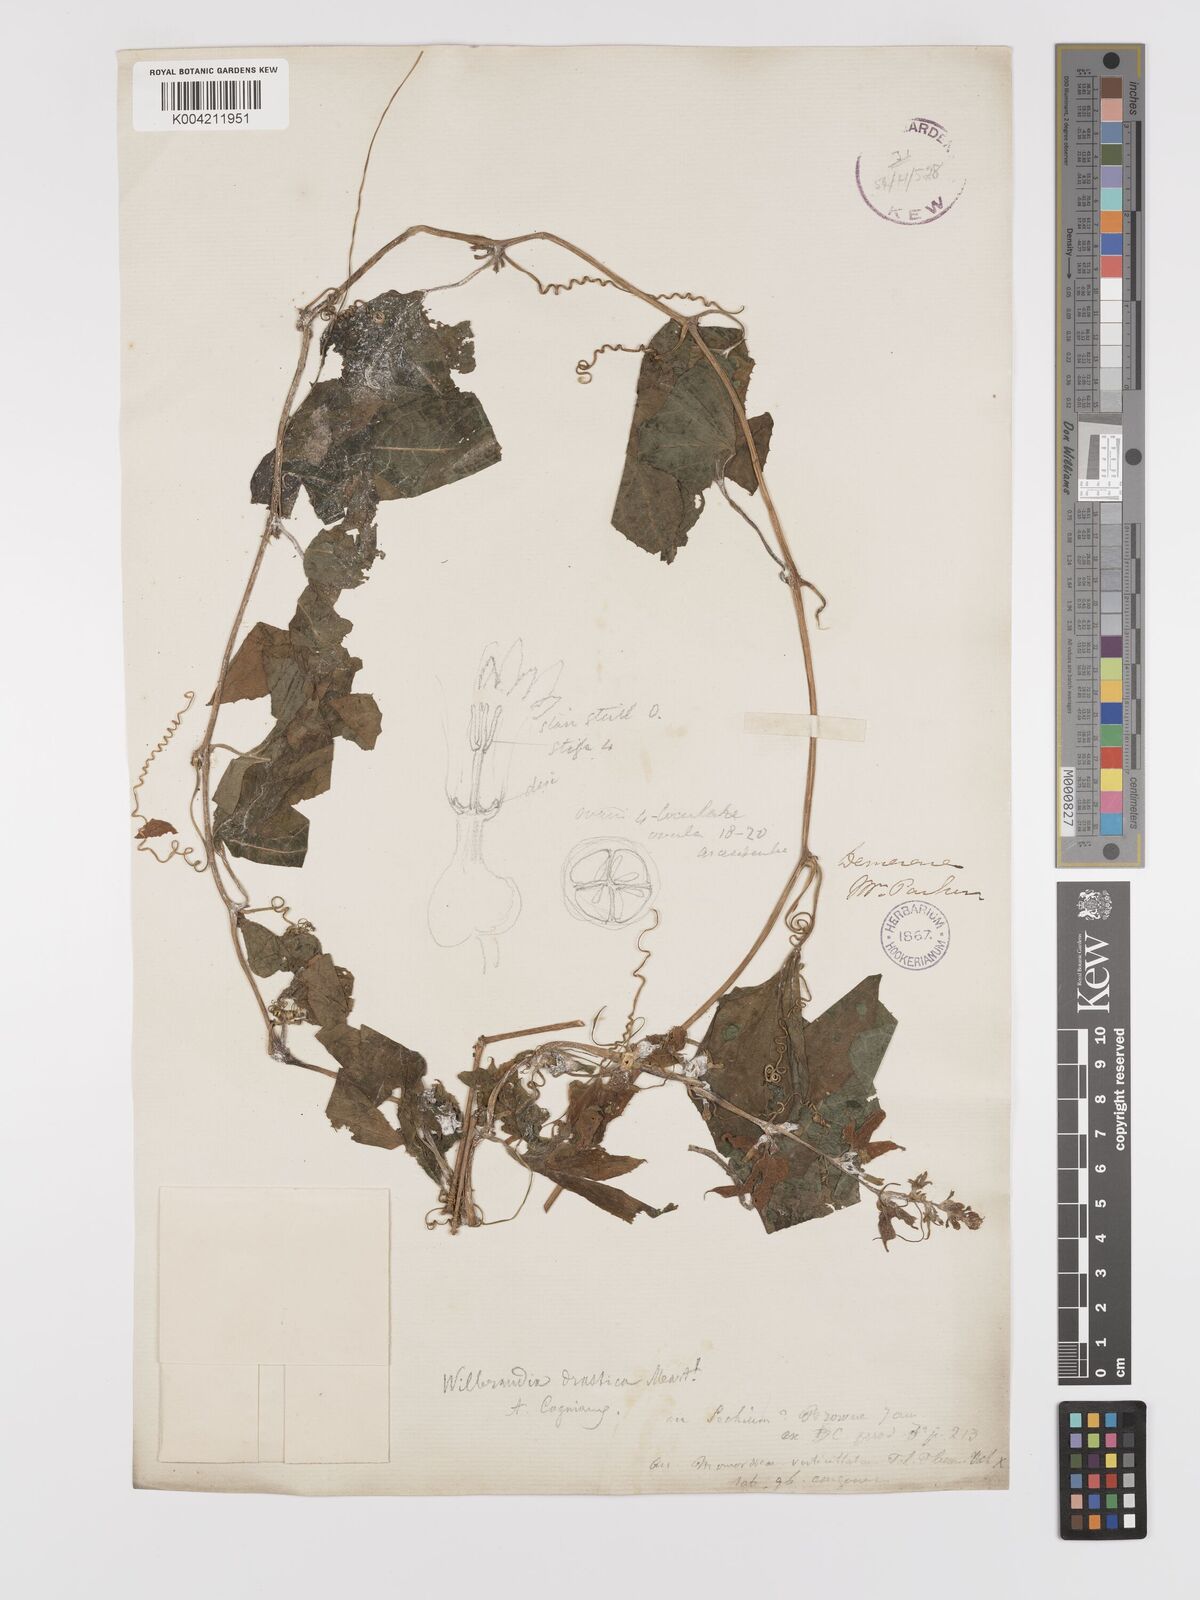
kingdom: Plantae
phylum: Tracheophyta
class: Magnoliopsida
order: Cucurbitales
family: Cucurbitaceae
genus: Wilbrandia
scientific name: Wilbrandia verticillata
